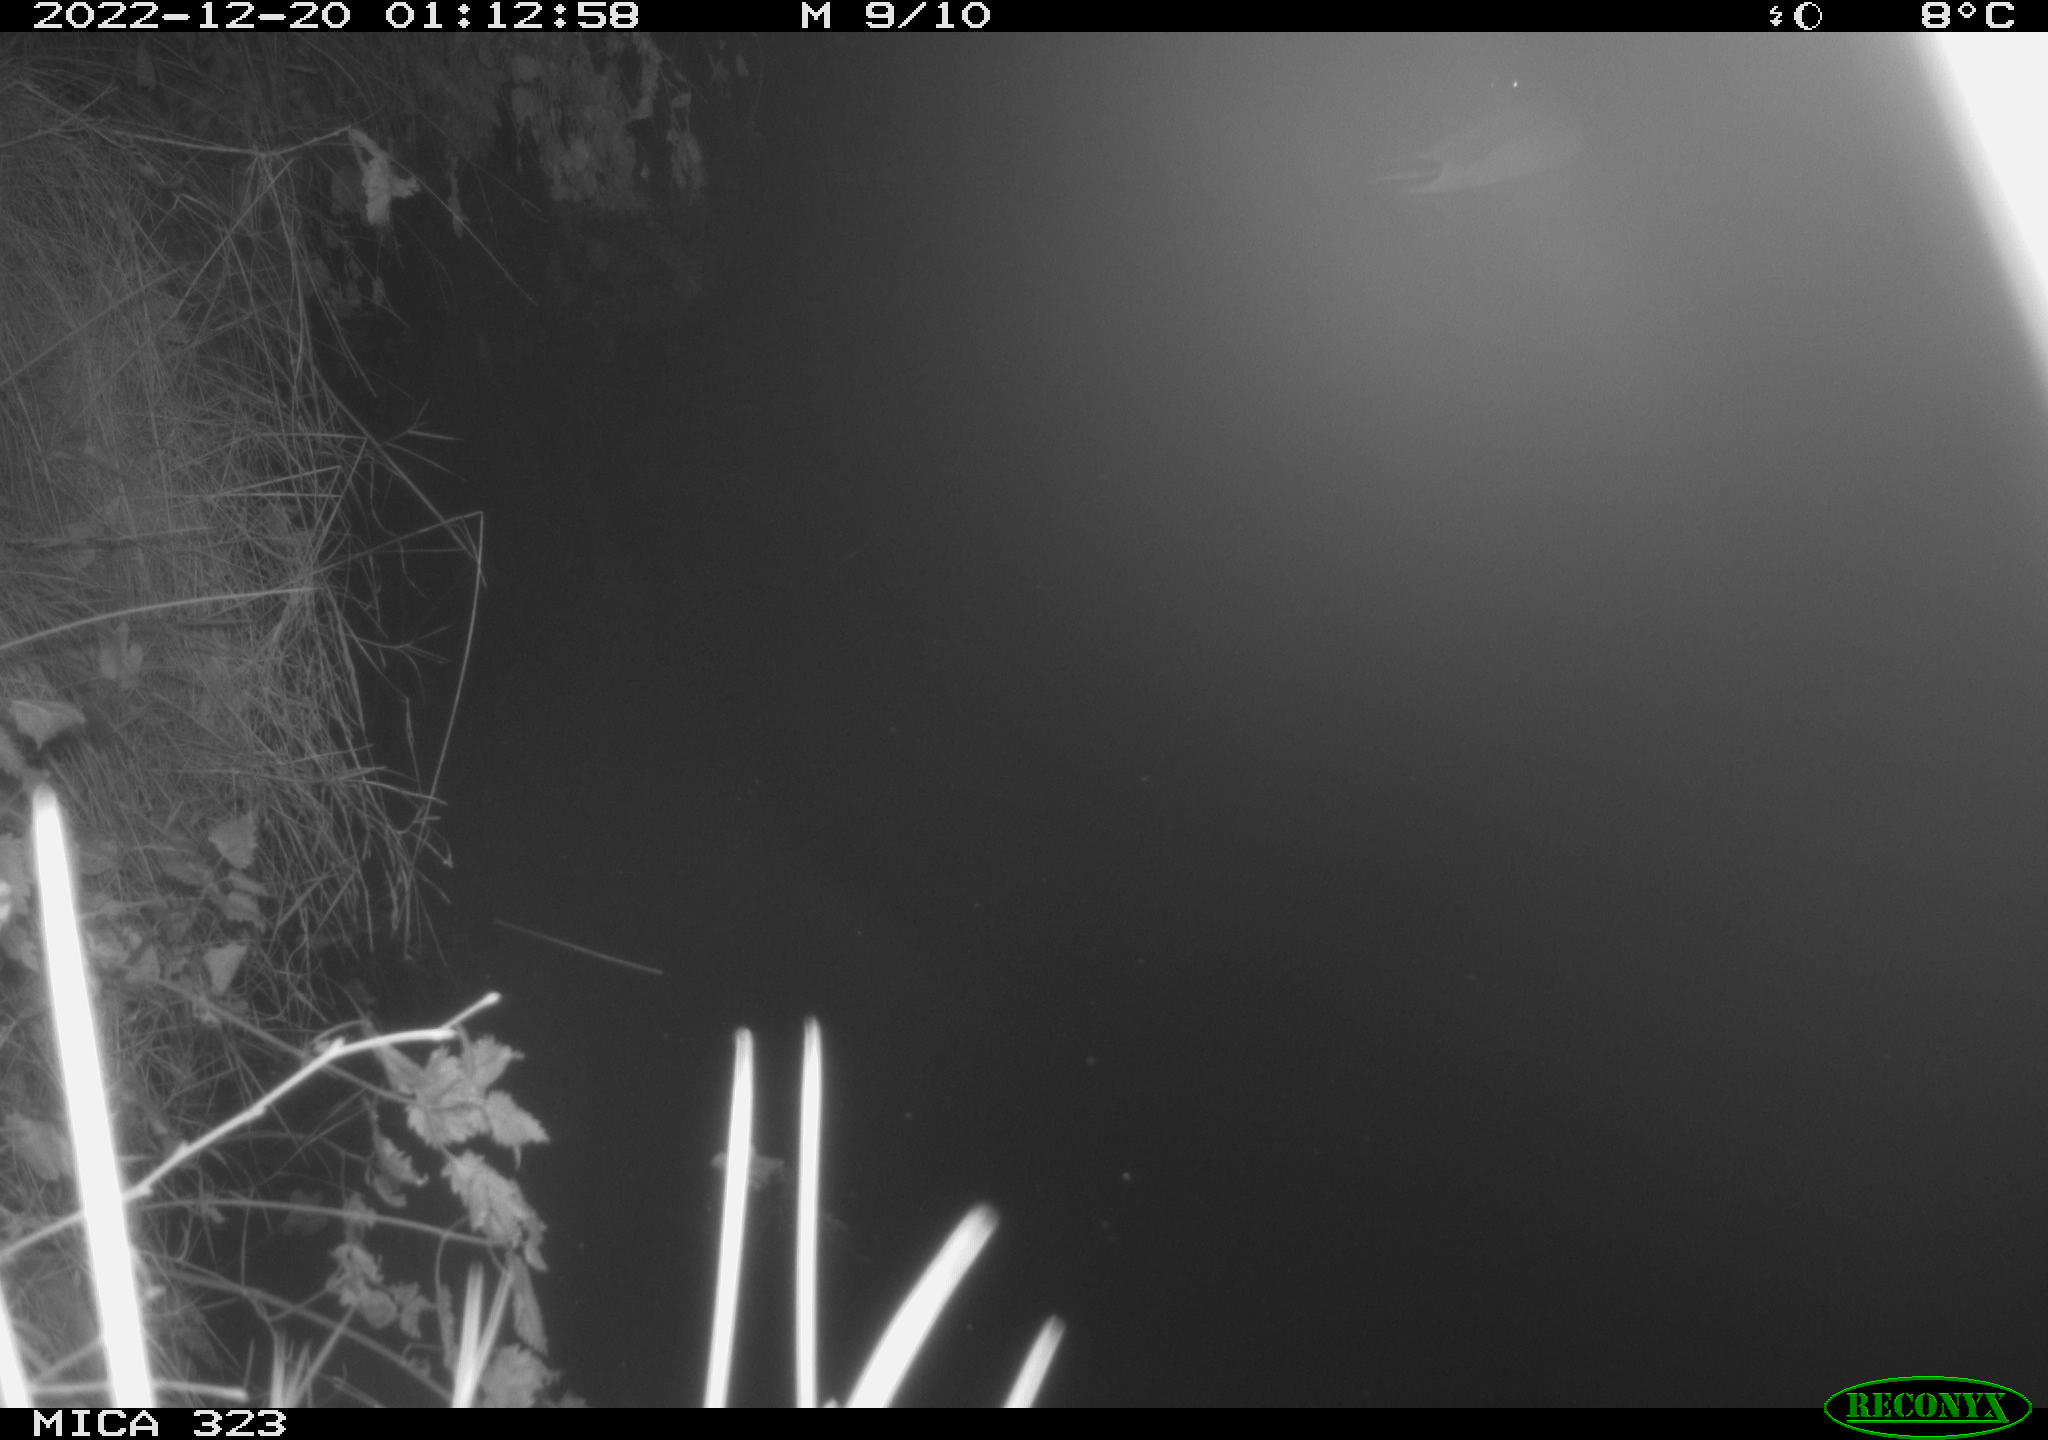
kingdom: Animalia
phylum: Chordata
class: Mammalia
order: Rodentia
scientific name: Rodentia
